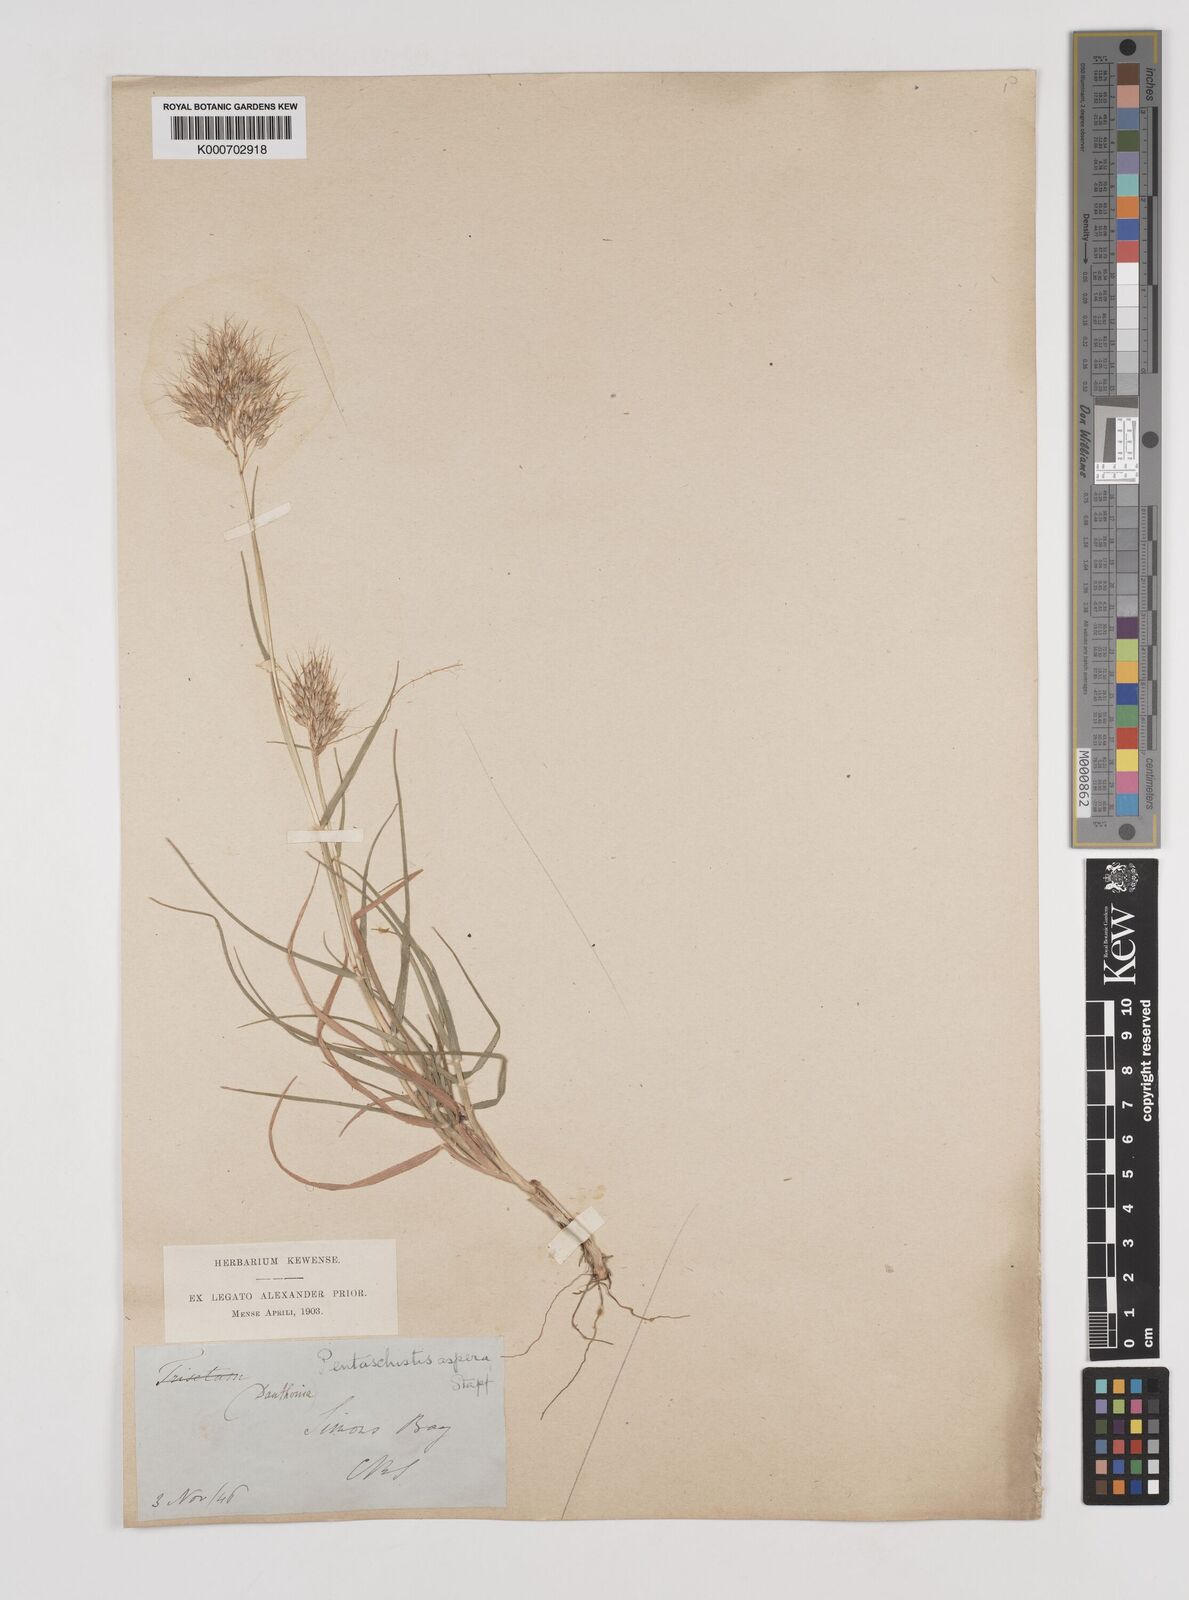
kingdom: Plantae
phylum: Tracheophyta
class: Liliopsida
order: Poales
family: Poaceae
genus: Pentameris
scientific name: Pentameris aspera
